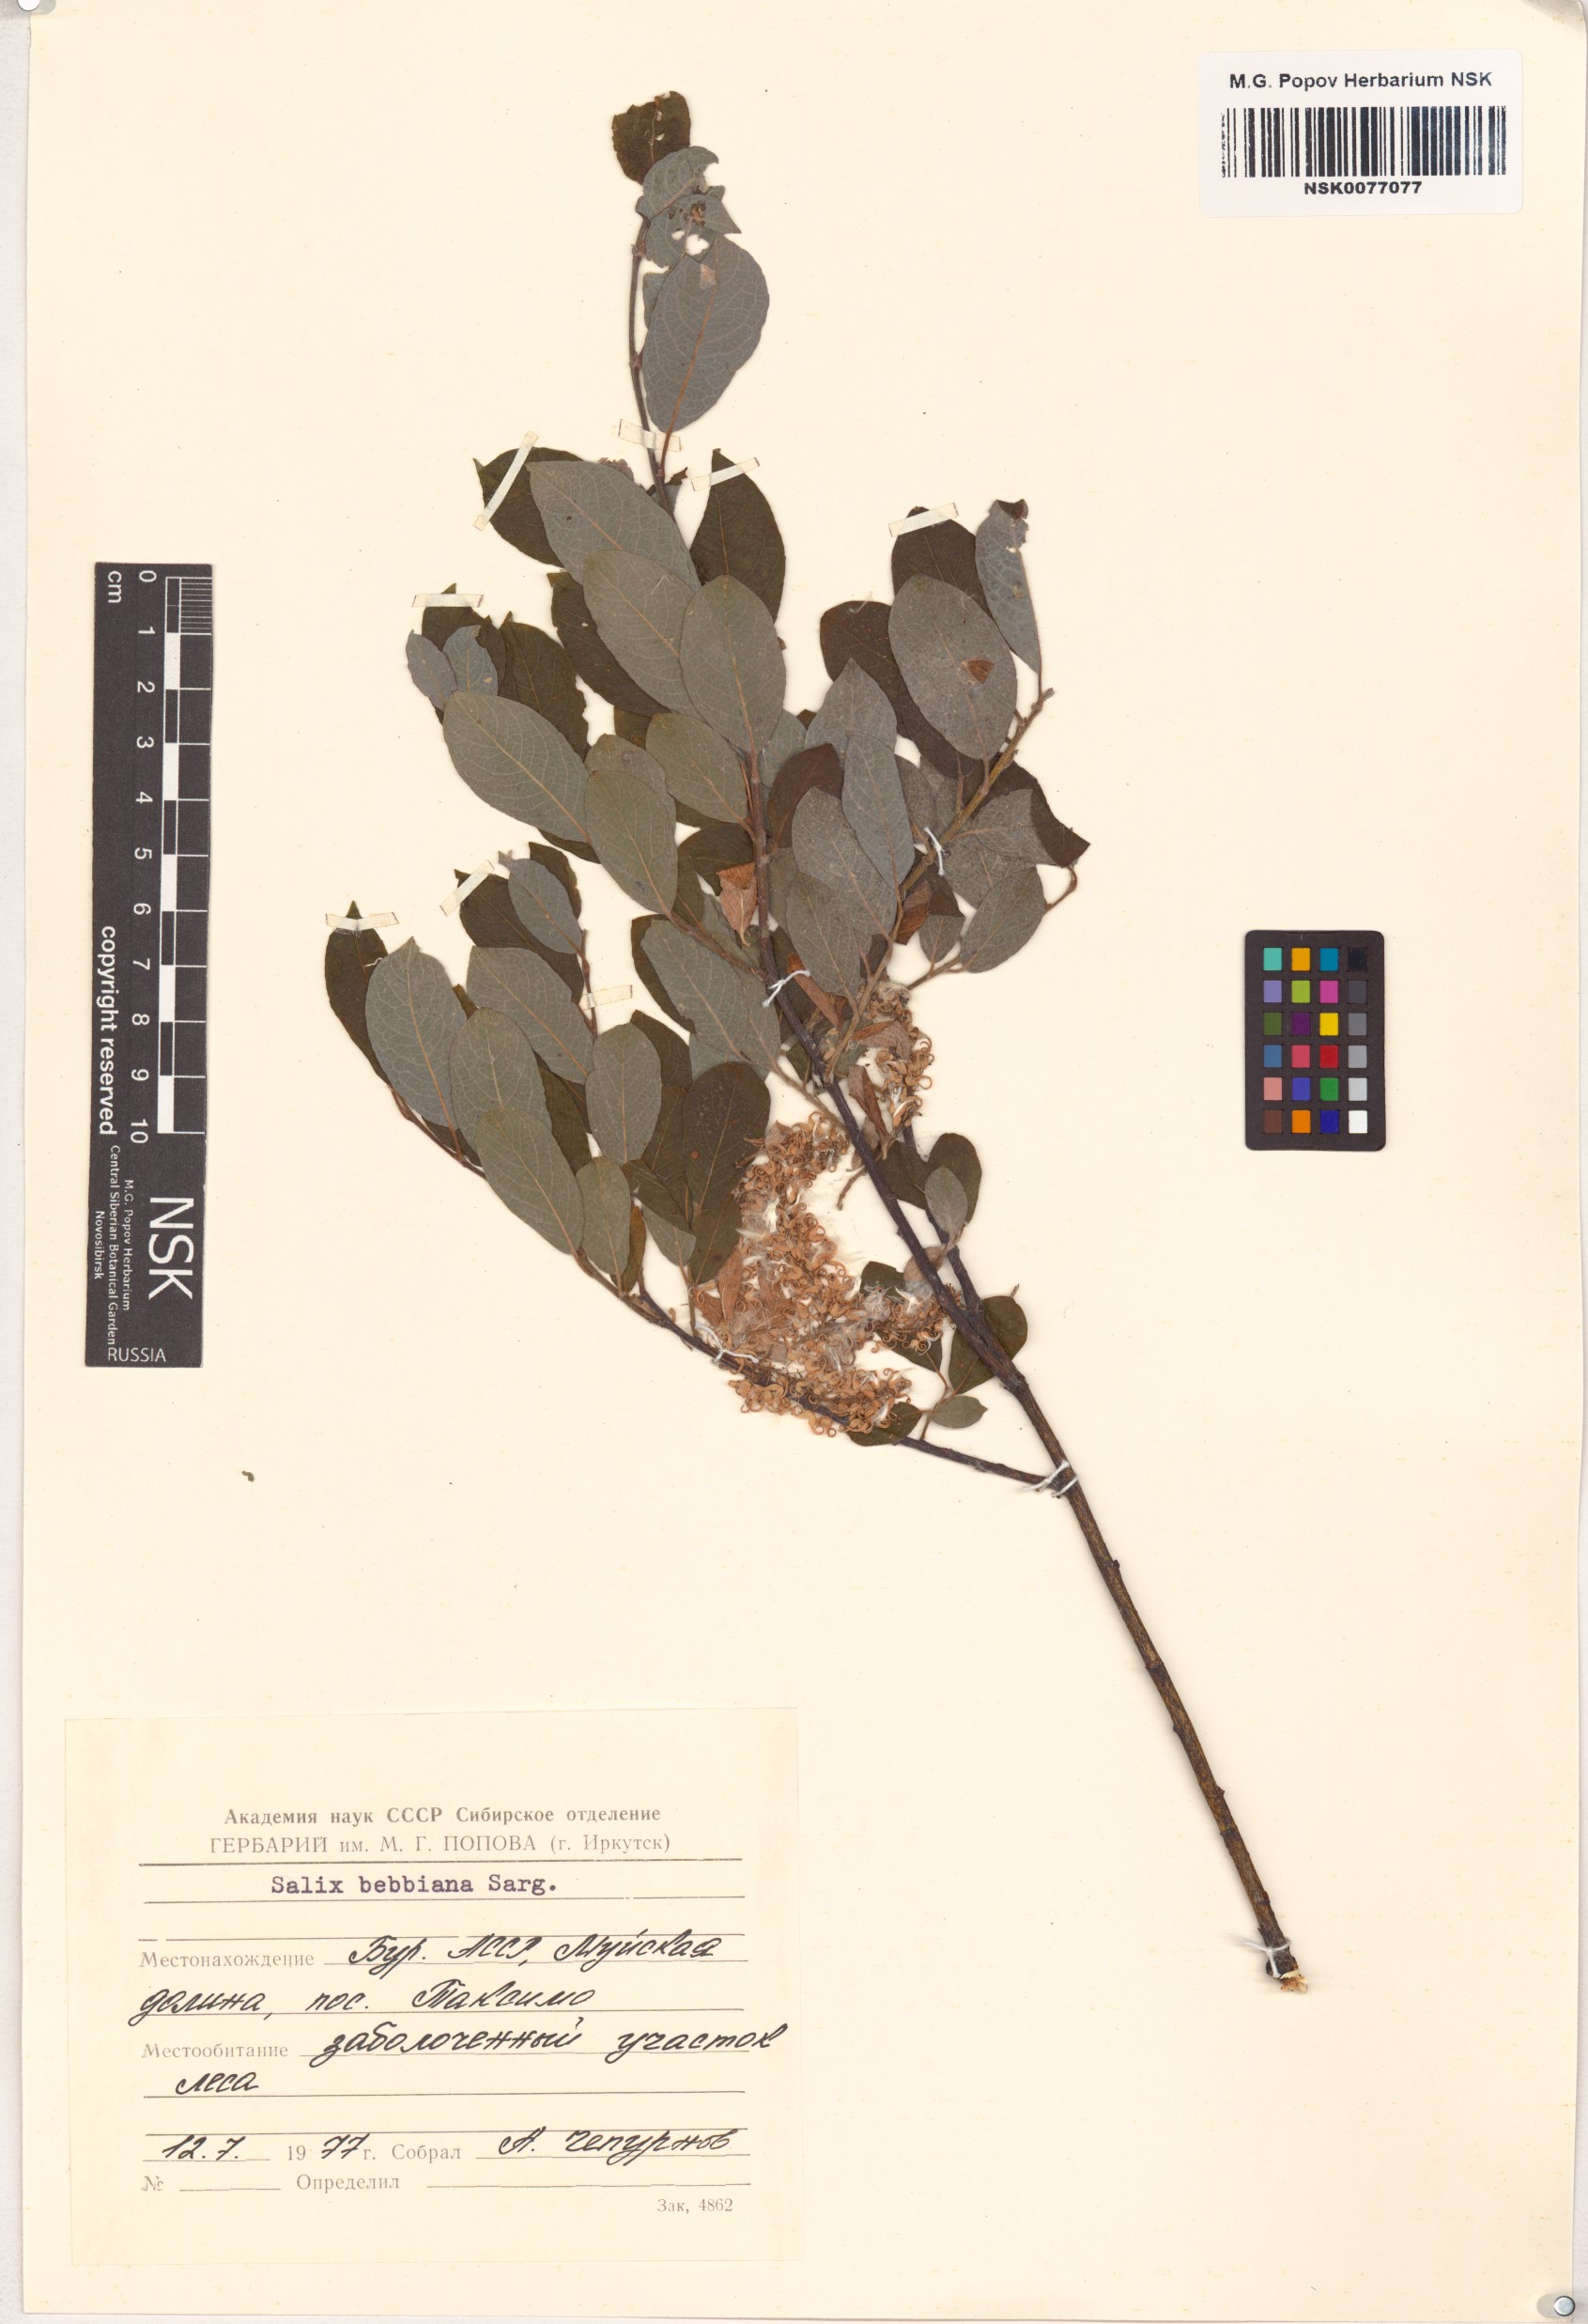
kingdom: Plantae
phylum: Tracheophyta
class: Magnoliopsida
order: Malpighiales
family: Salicaceae
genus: Salix
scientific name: Salix bebbiana
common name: Bebb's willow
